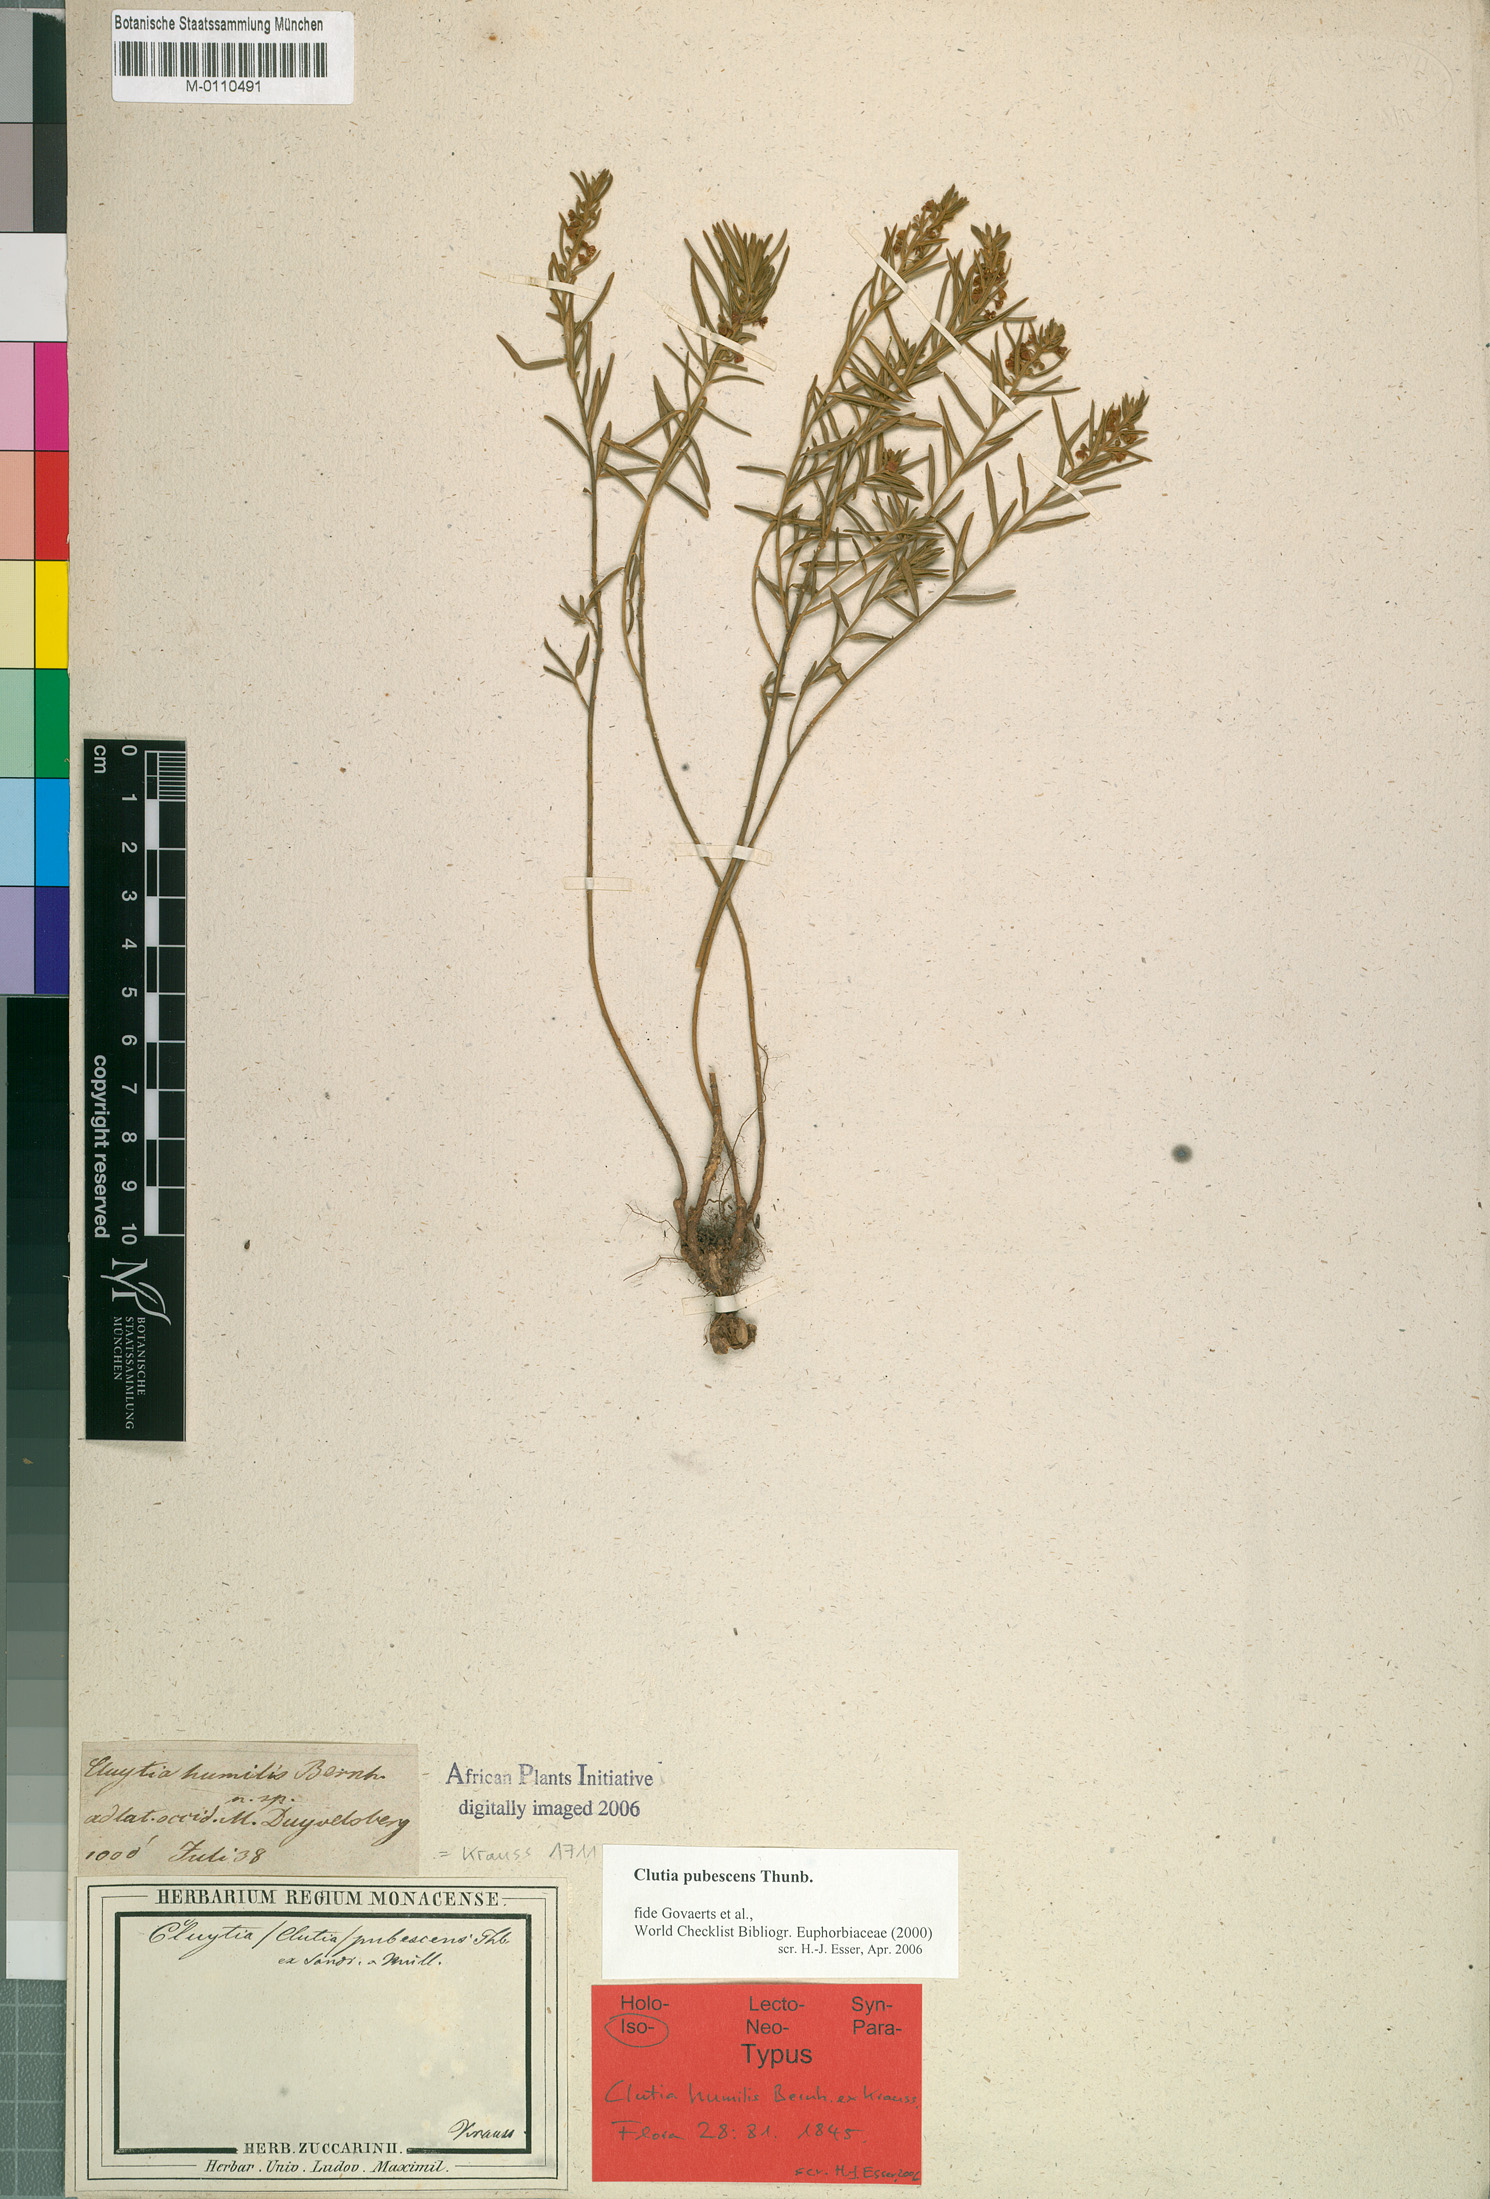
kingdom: Plantae
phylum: Tracheophyta
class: Magnoliopsida
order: Malpighiales
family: Peraceae
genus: Clutia
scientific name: Clutia pubescens
